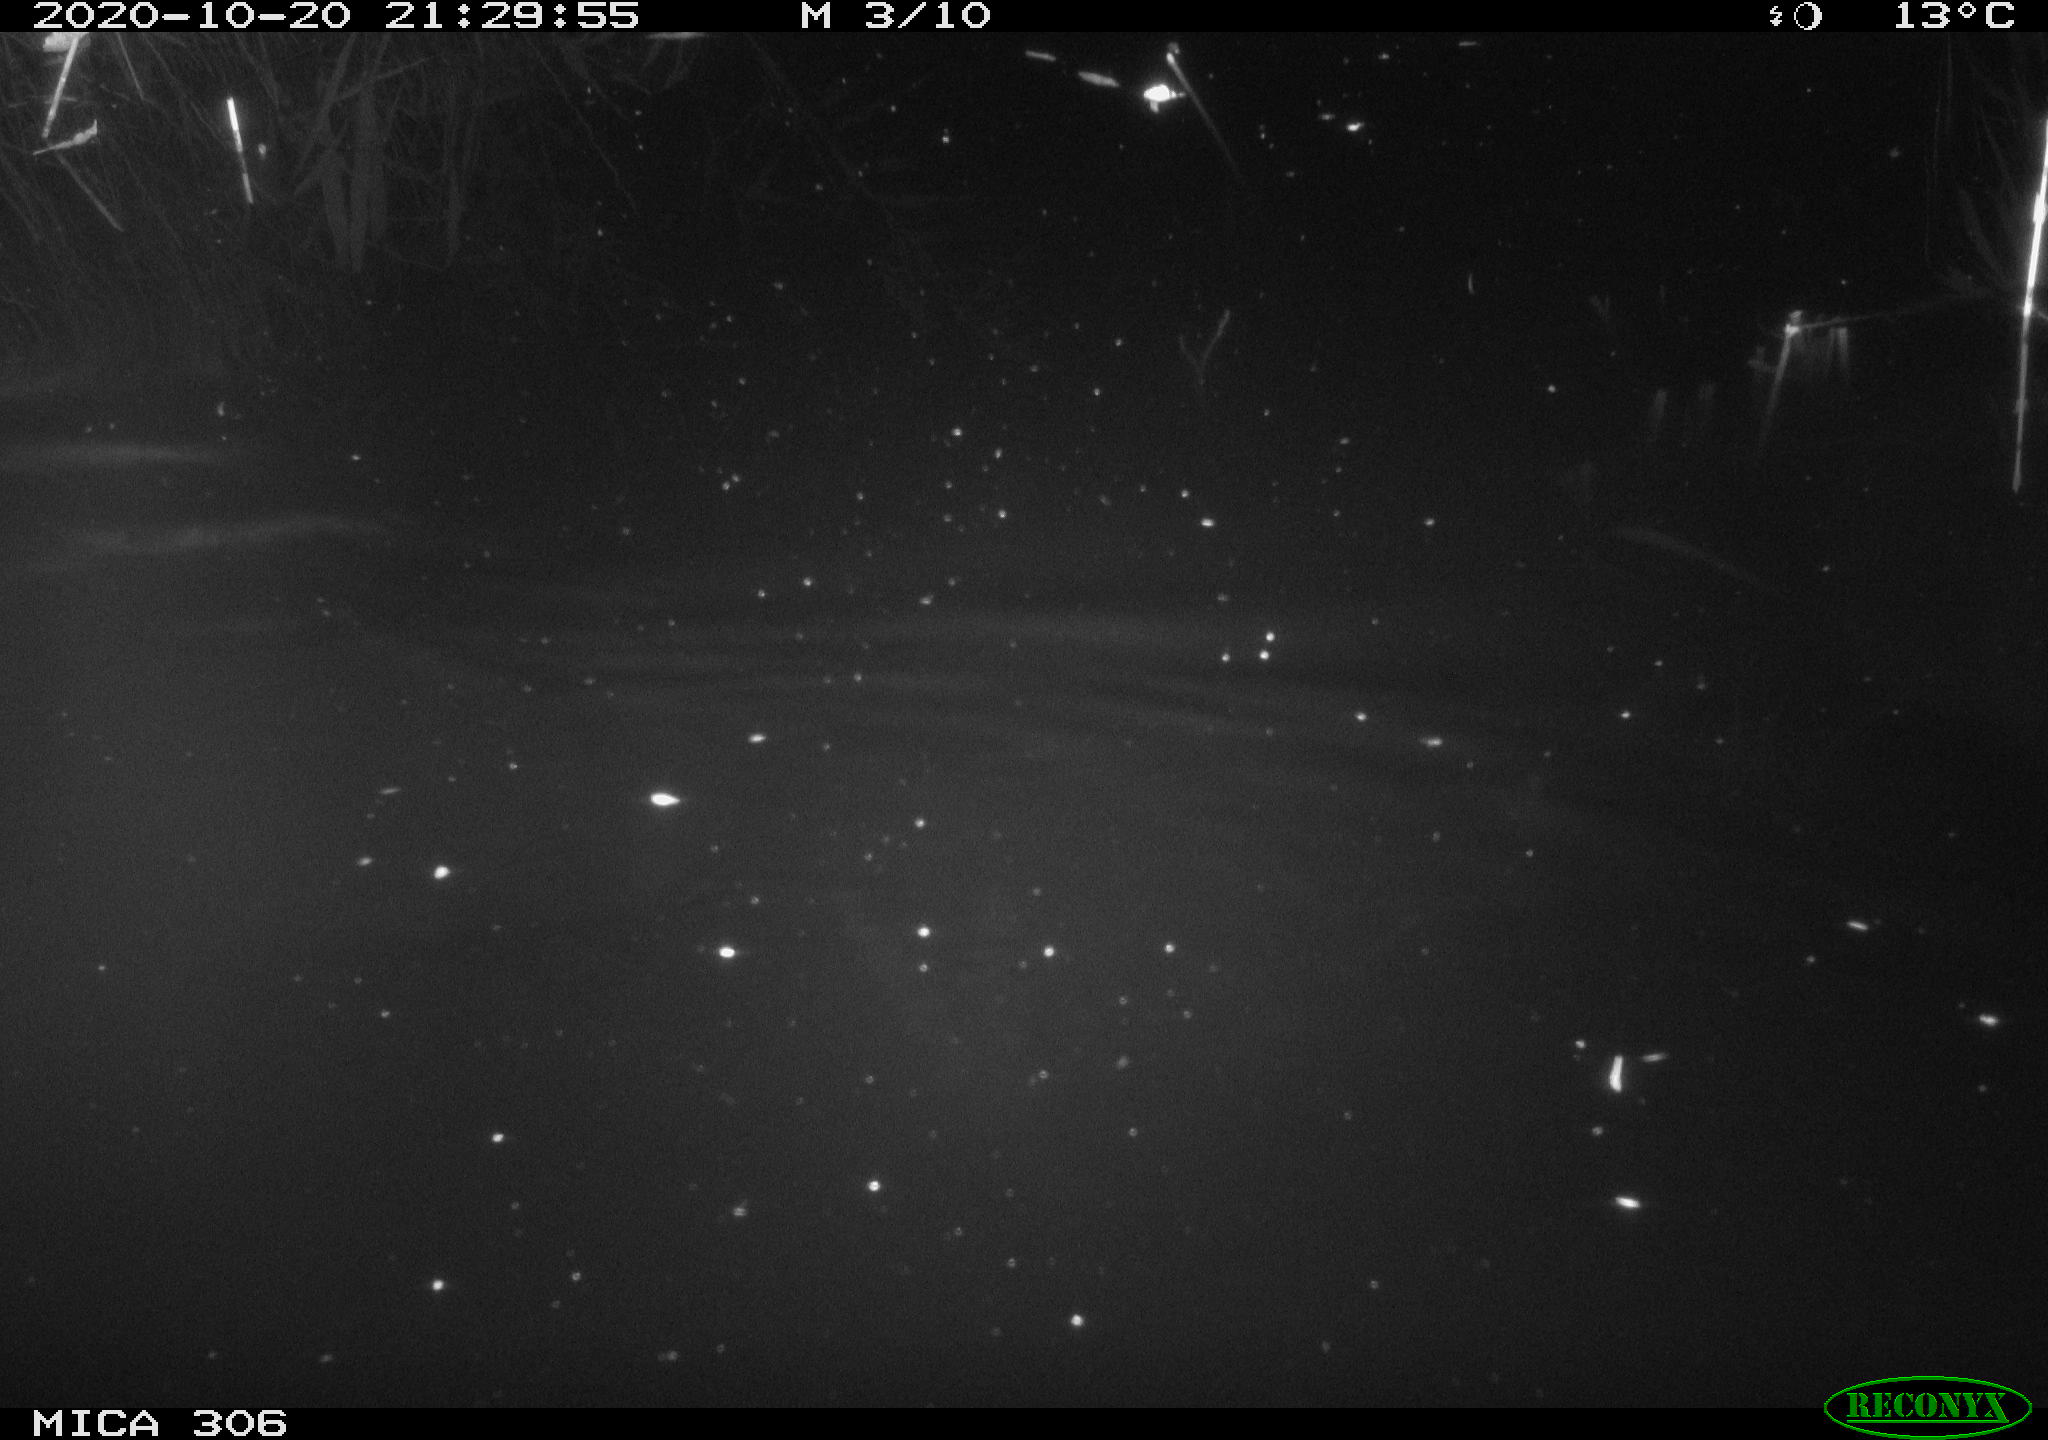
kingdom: Animalia
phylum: Chordata
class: Mammalia
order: Rodentia
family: Muridae
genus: Rattus
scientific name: Rattus norvegicus
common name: Brown rat
